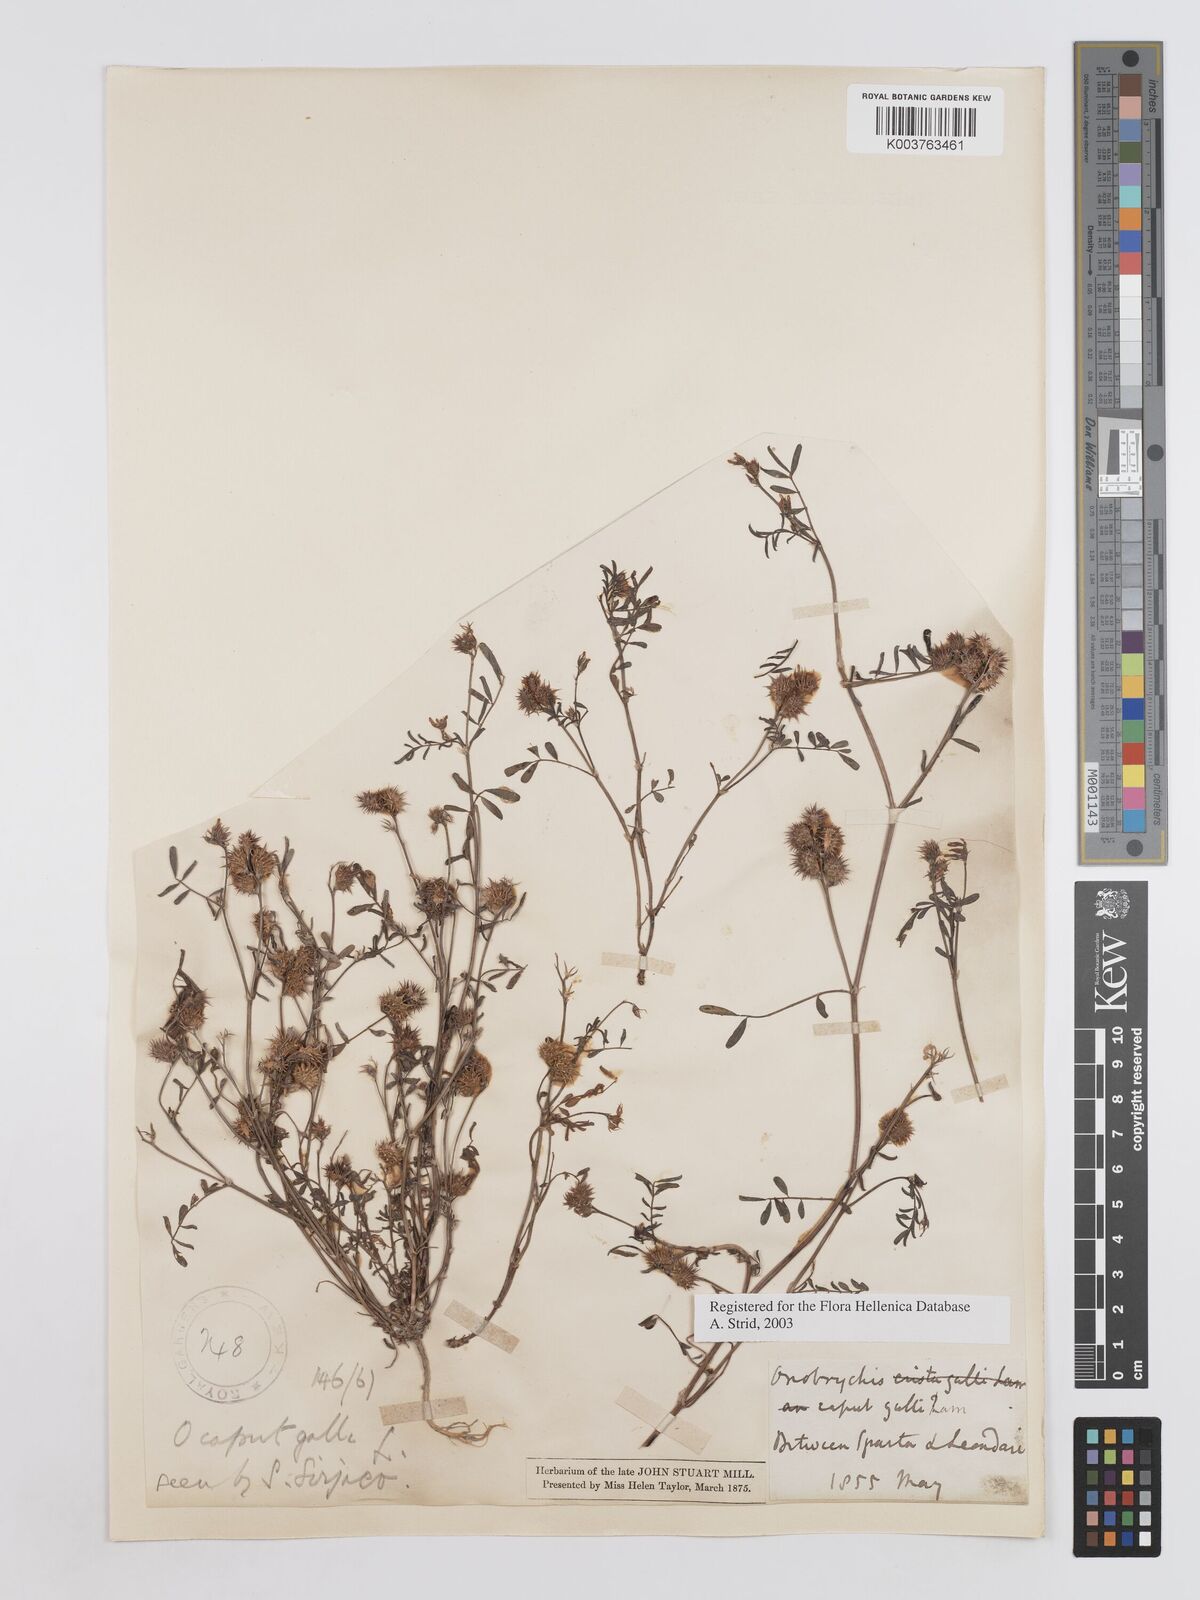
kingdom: Plantae
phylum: Tracheophyta
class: Magnoliopsida
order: Fabales
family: Fabaceae
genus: Onobrychis
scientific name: Onobrychis caput-galli
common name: Cockscomb sainfoin
